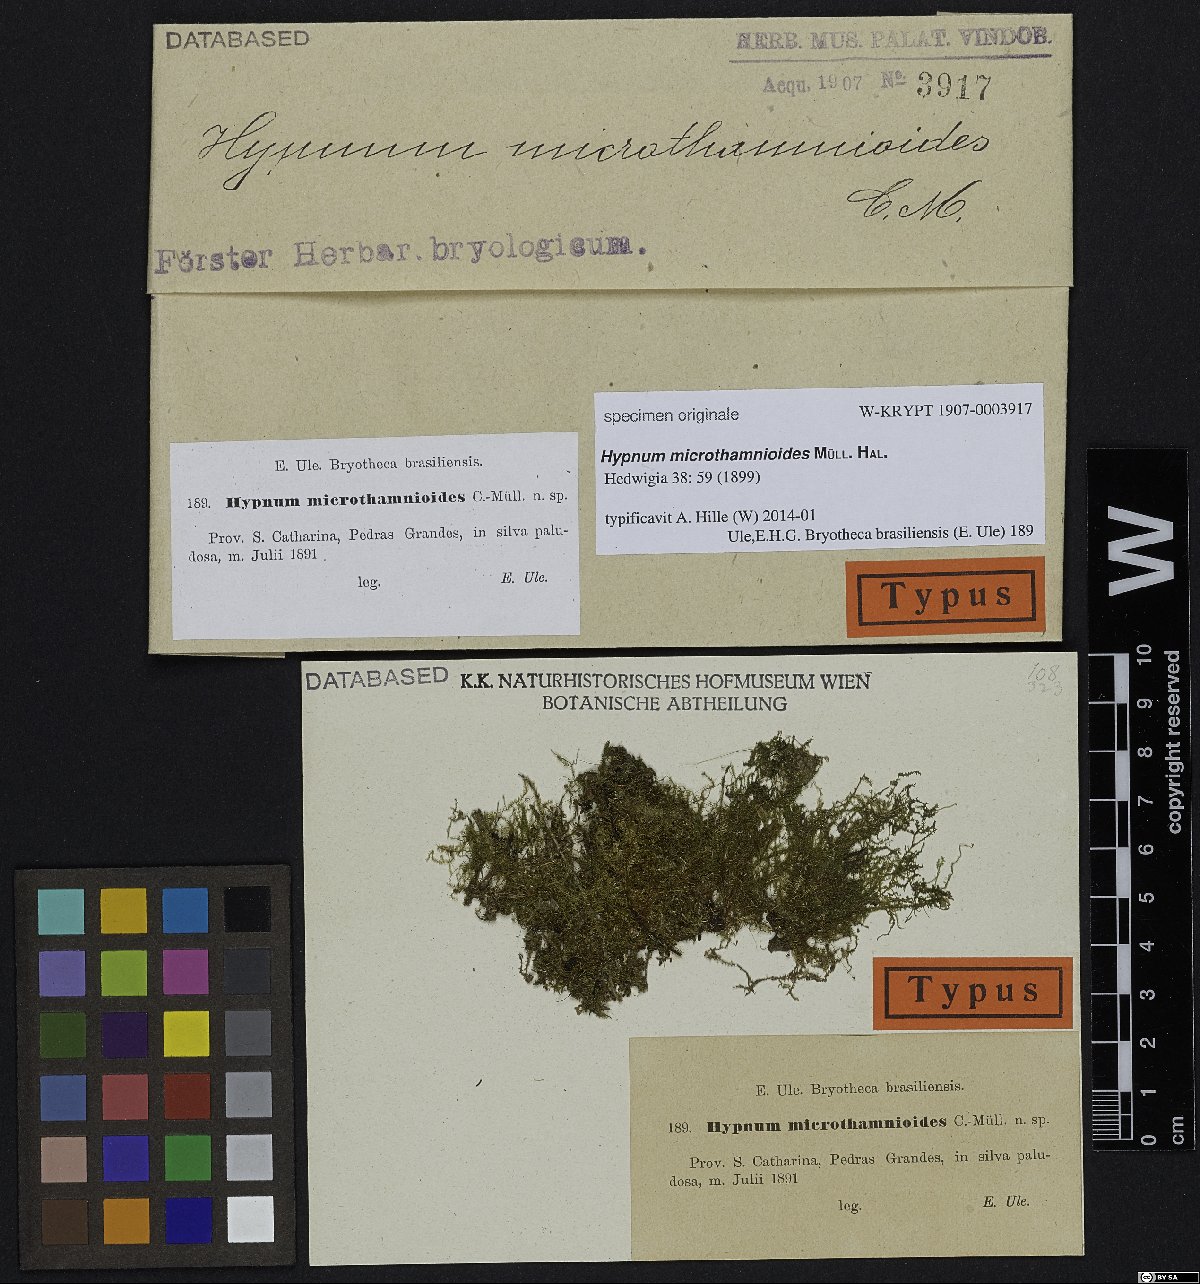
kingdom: Plantae
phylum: Bryophyta
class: Bryopsida
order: Hypnales
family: Hypnaceae
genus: Mittenothamnium
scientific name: Mittenothamnium microthamnioides
